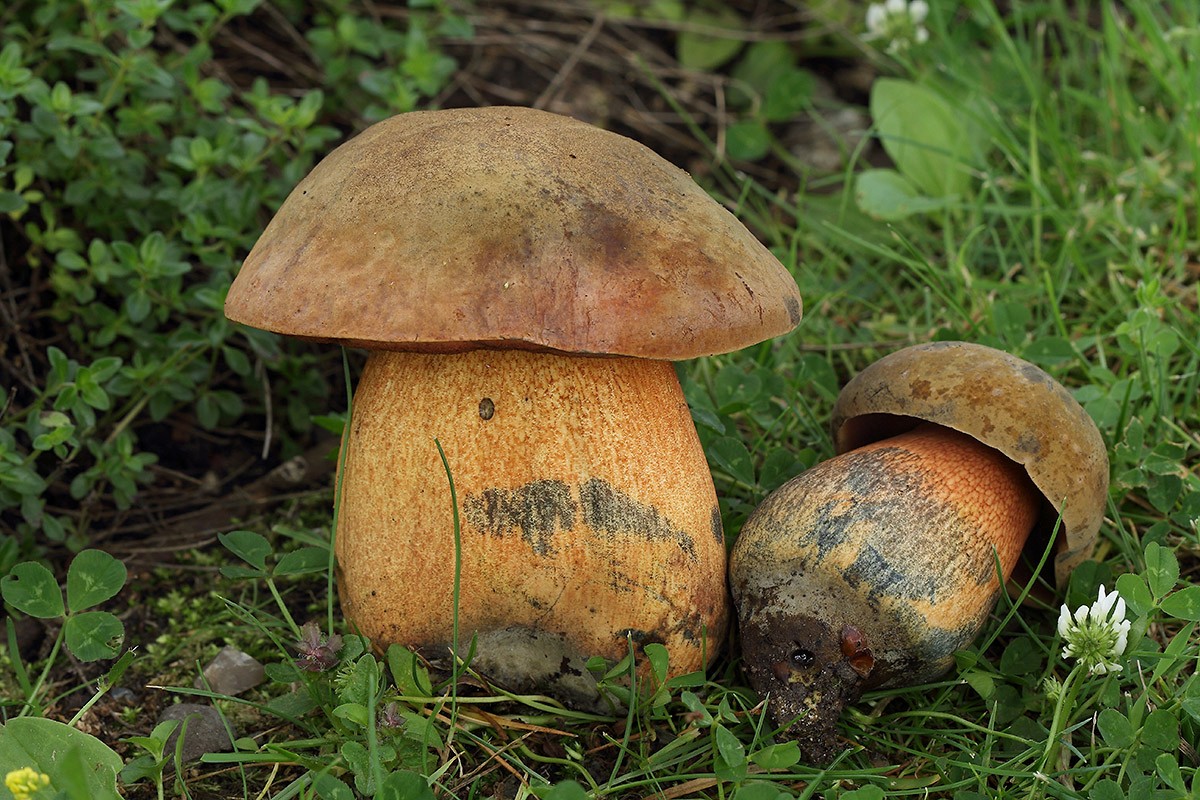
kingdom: Fungi
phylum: Basidiomycota
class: Agaricomycetes
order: Boletales
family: Boletaceae
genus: Suillellus
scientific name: Suillellus luridus
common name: netstokket indigorørhat
